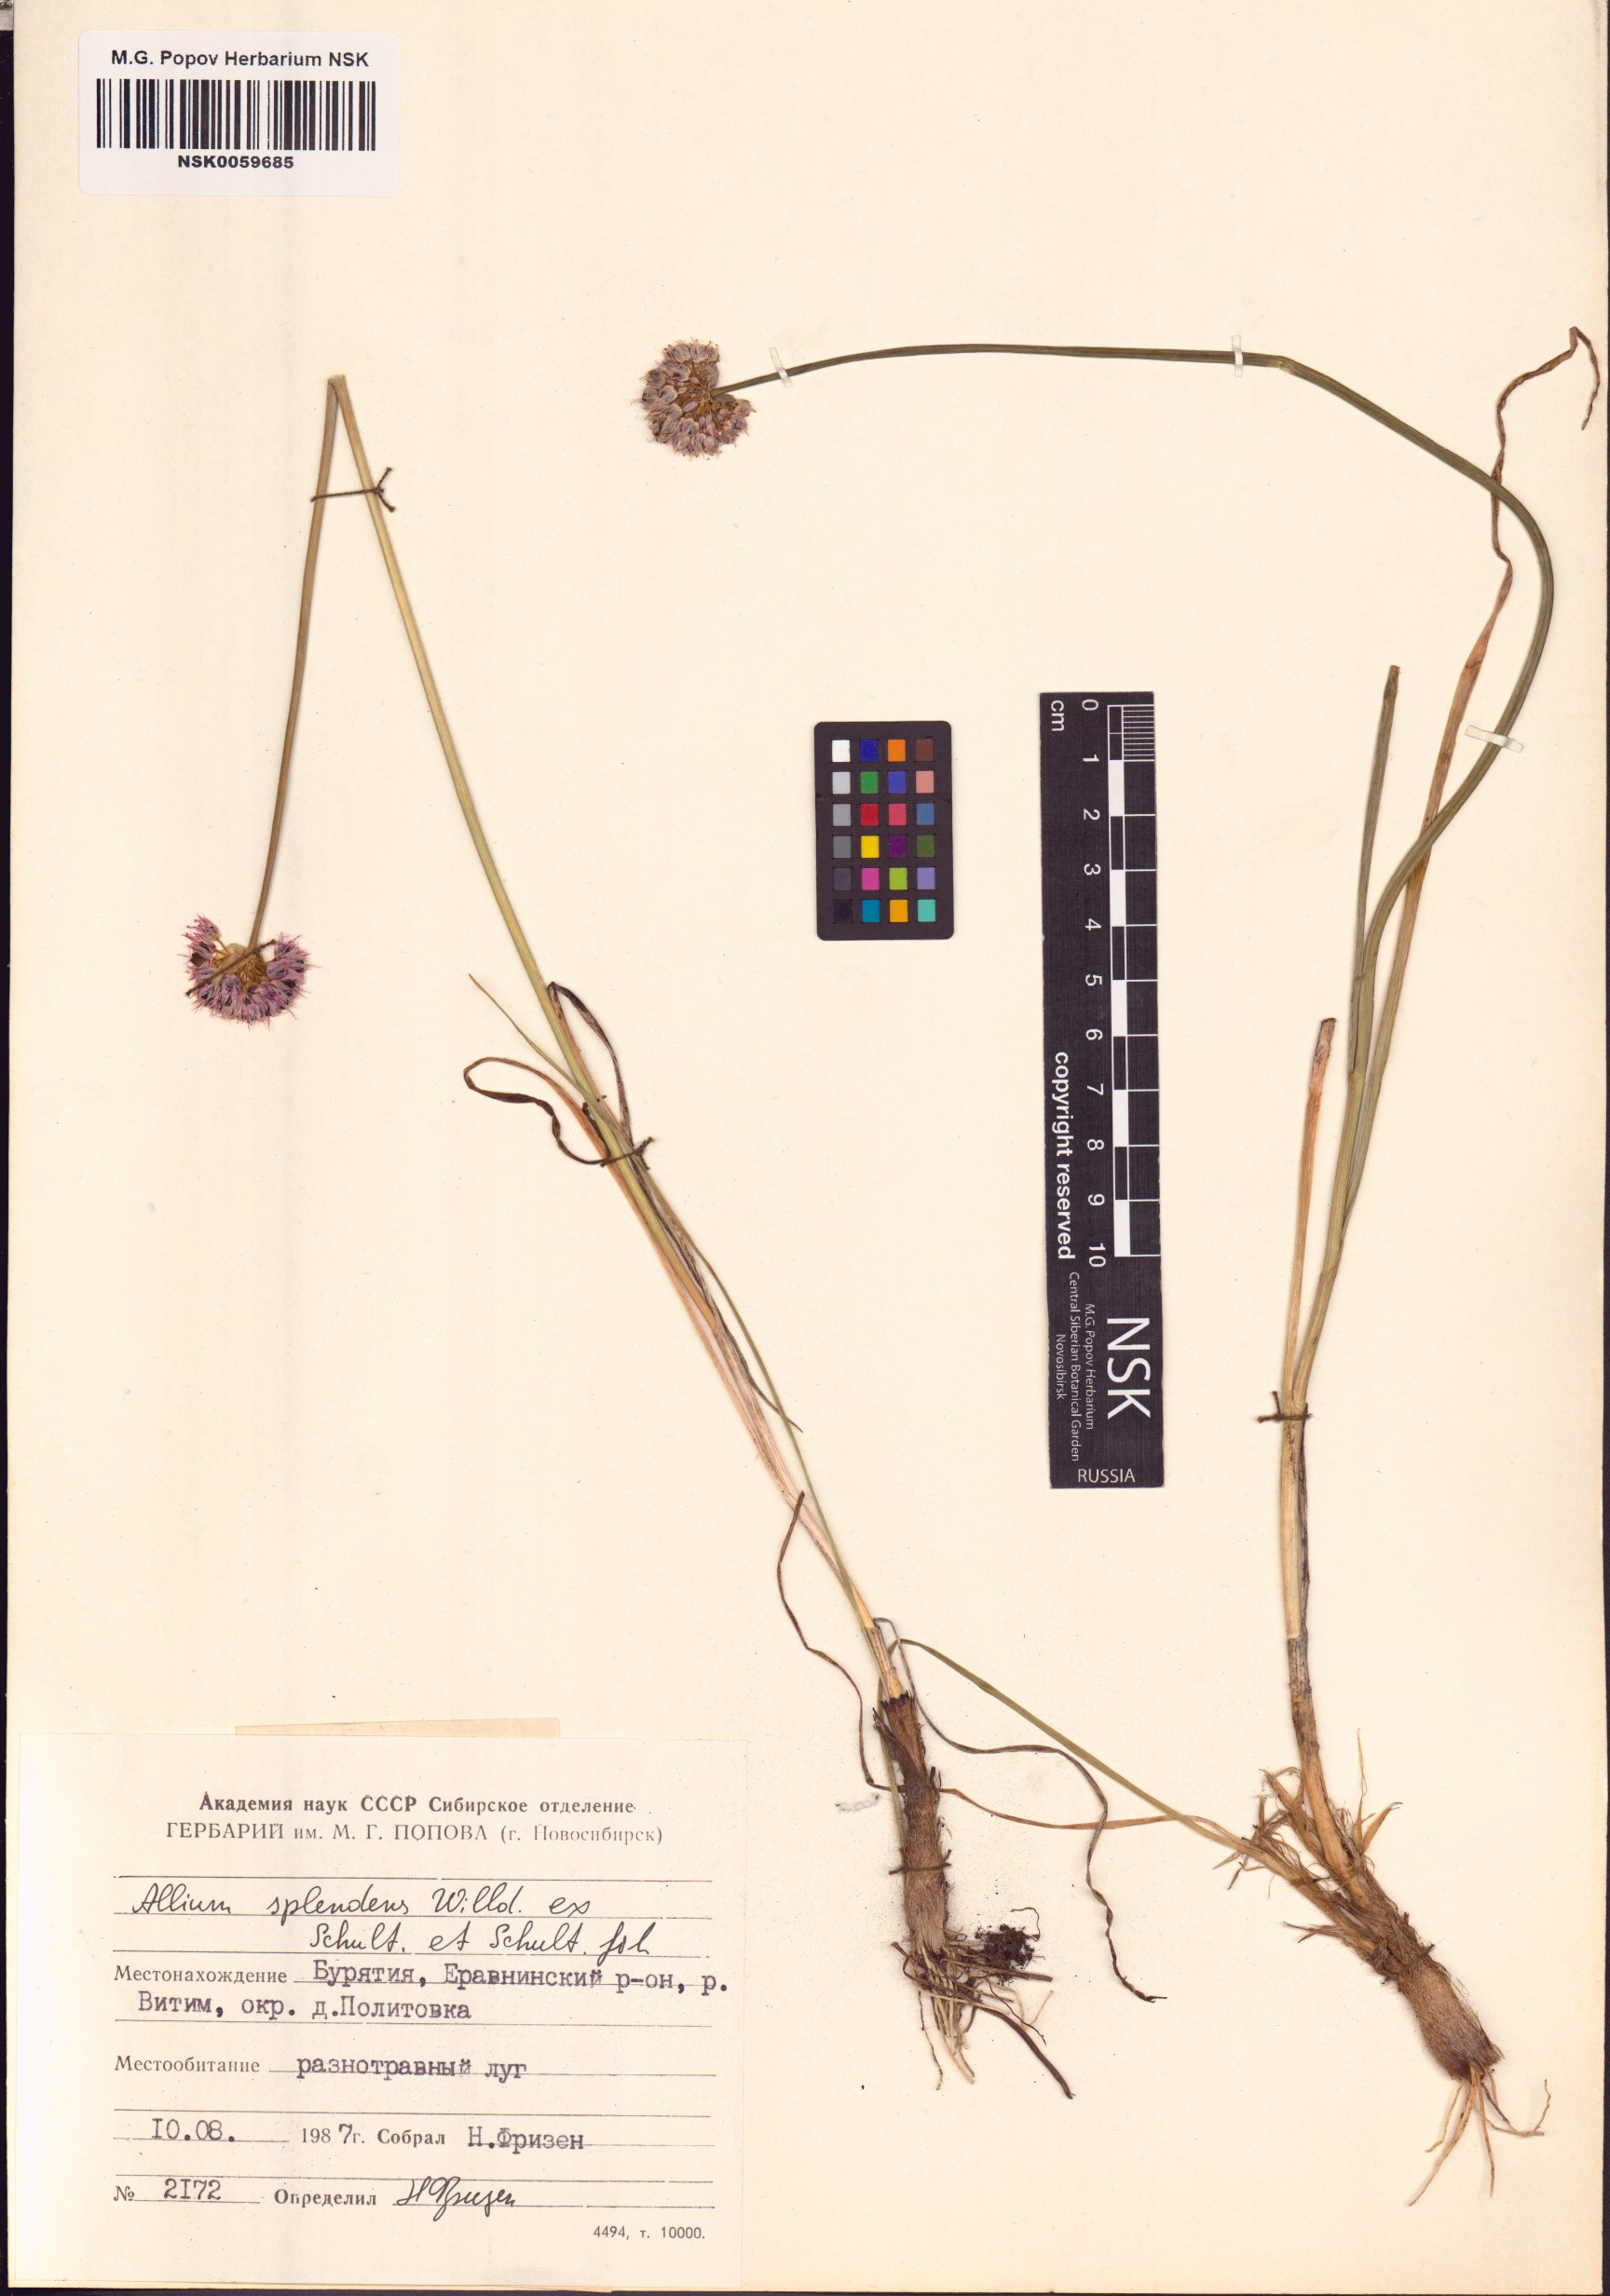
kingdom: Plantae
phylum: Tracheophyta
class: Liliopsida
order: Asparagales
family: Amaryllidaceae
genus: Allium
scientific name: Allium splendens
